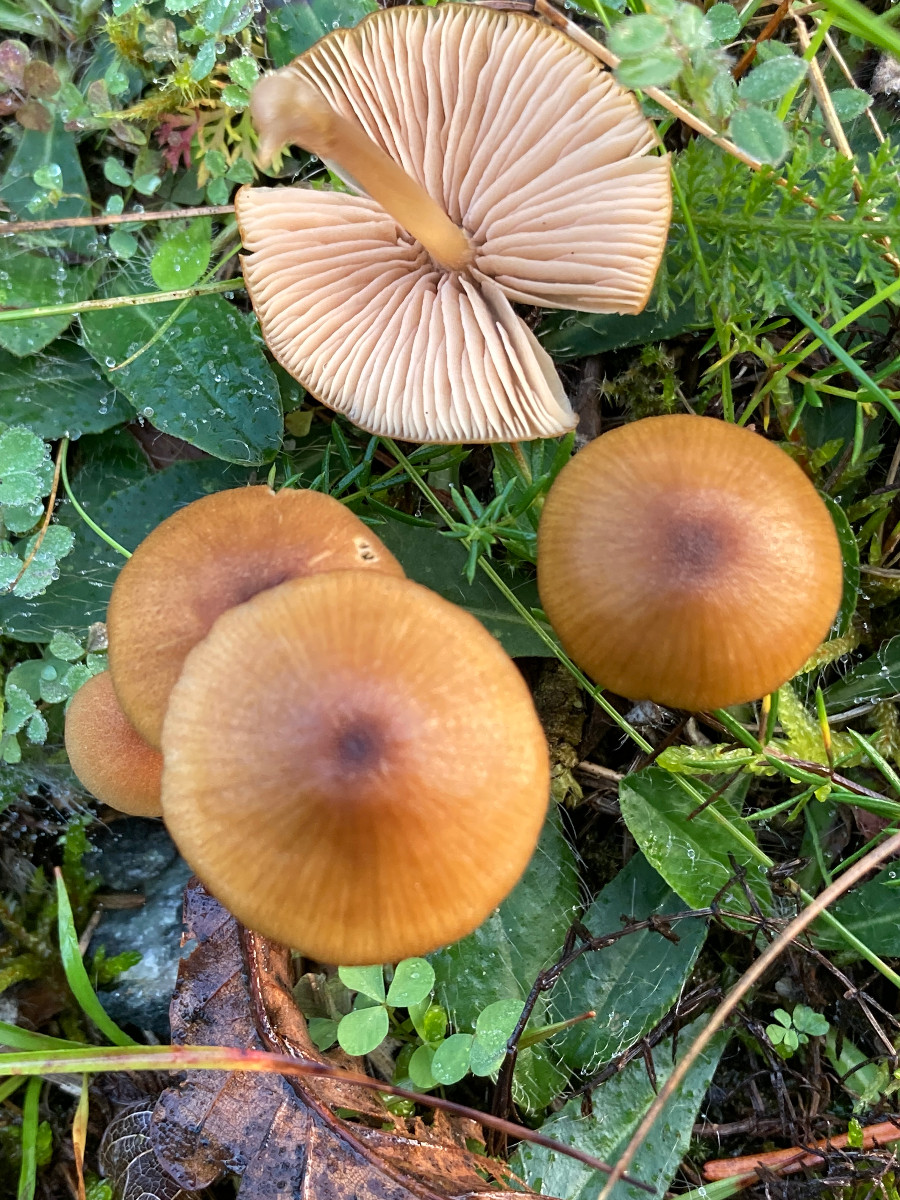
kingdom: Fungi
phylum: Basidiomycota
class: Agaricomycetes
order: Agaricales
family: Entolomataceae
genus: Entoloma
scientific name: Entoloma formosum
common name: brungul rødblad
